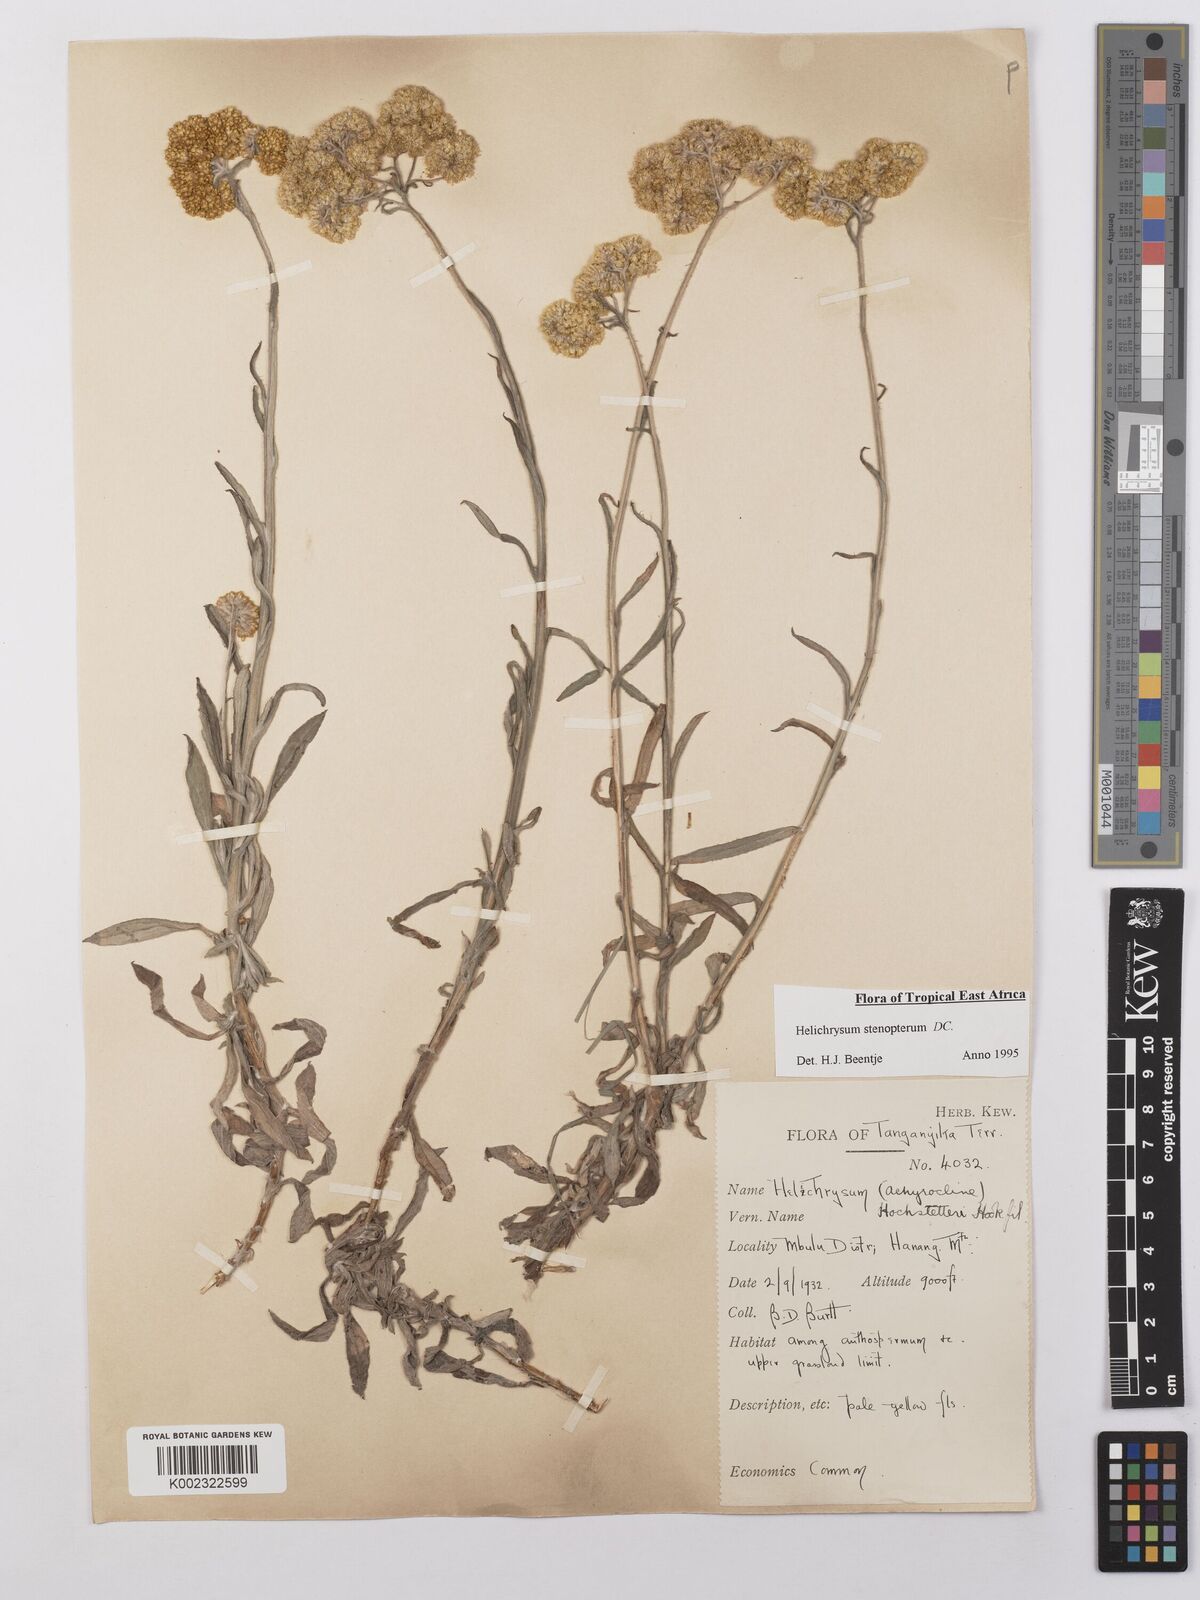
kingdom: Plantae
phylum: Tracheophyta
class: Magnoliopsida
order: Asterales
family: Asteraceae
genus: Helichrysum
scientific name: Helichrysum stenopterum
